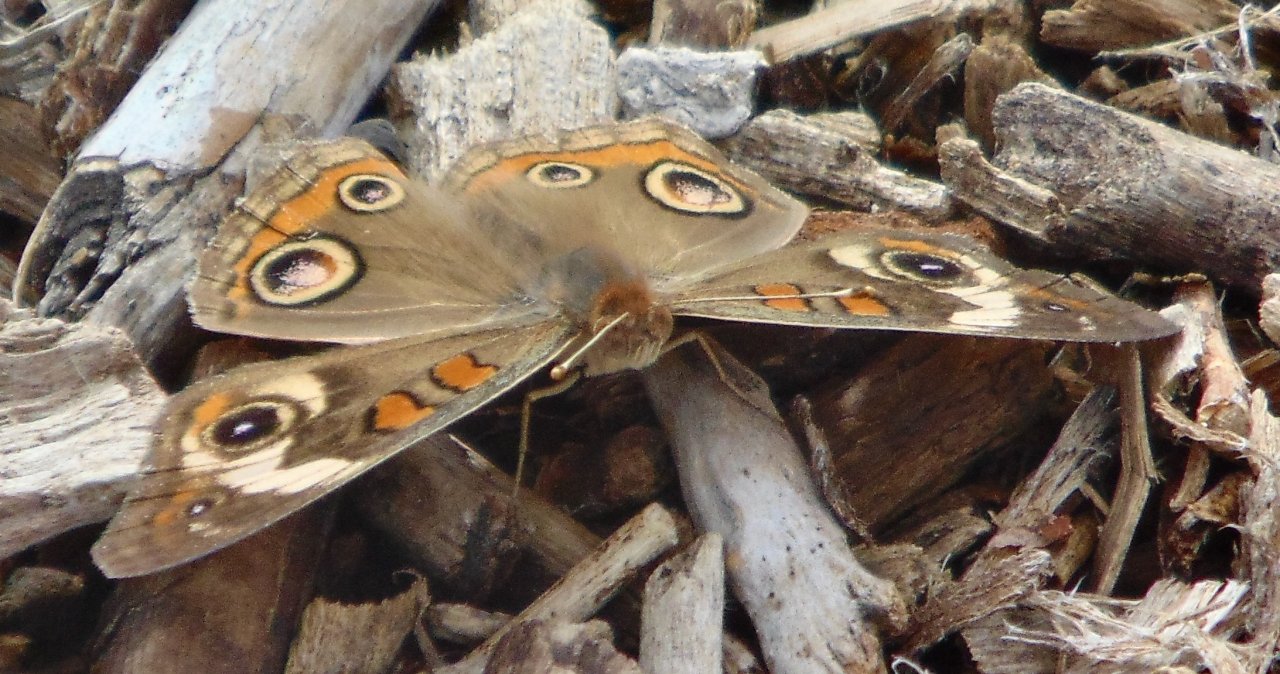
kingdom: Animalia
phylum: Arthropoda
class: Insecta
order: Lepidoptera
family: Nymphalidae
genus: Junonia
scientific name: Junonia coenia
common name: Common Buckeye
